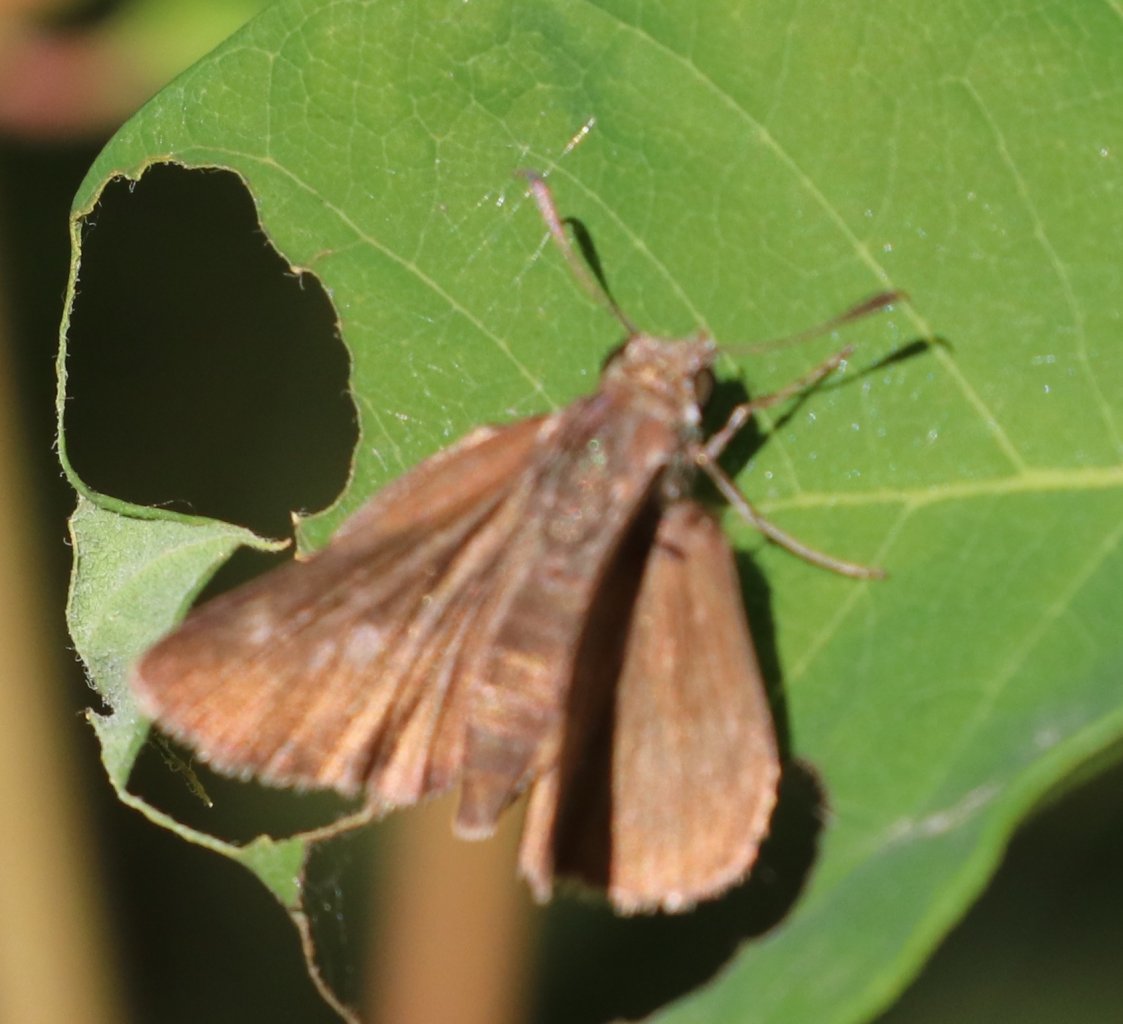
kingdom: Animalia
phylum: Arthropoda
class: Insecta
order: Lepidoptera
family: Hesperiidae
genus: Vernia
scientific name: Vernia verna
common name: Little Glassywing
